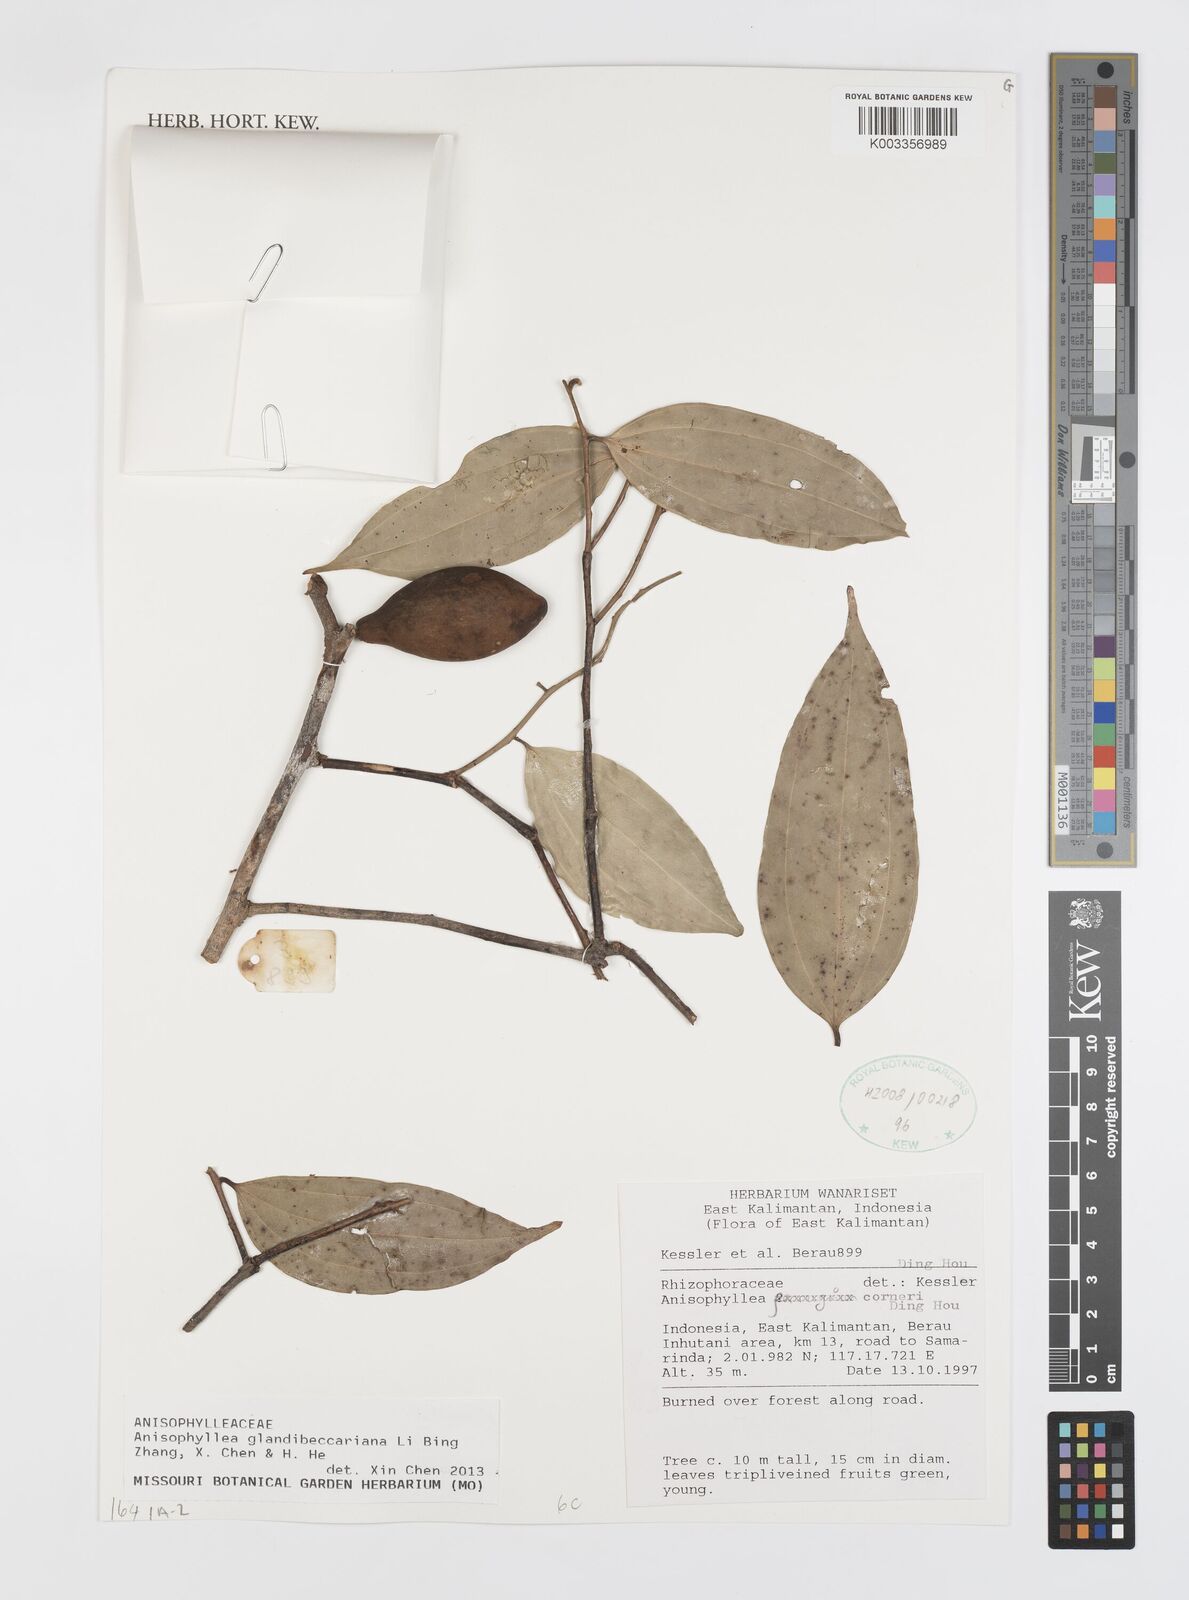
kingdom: Plantae
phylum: Tracheophyta
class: Magnoliopsida
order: Cucurbitales
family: Anisophylleaceae
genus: Anisophyllea
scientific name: Anisophyllea glandibeccariana
